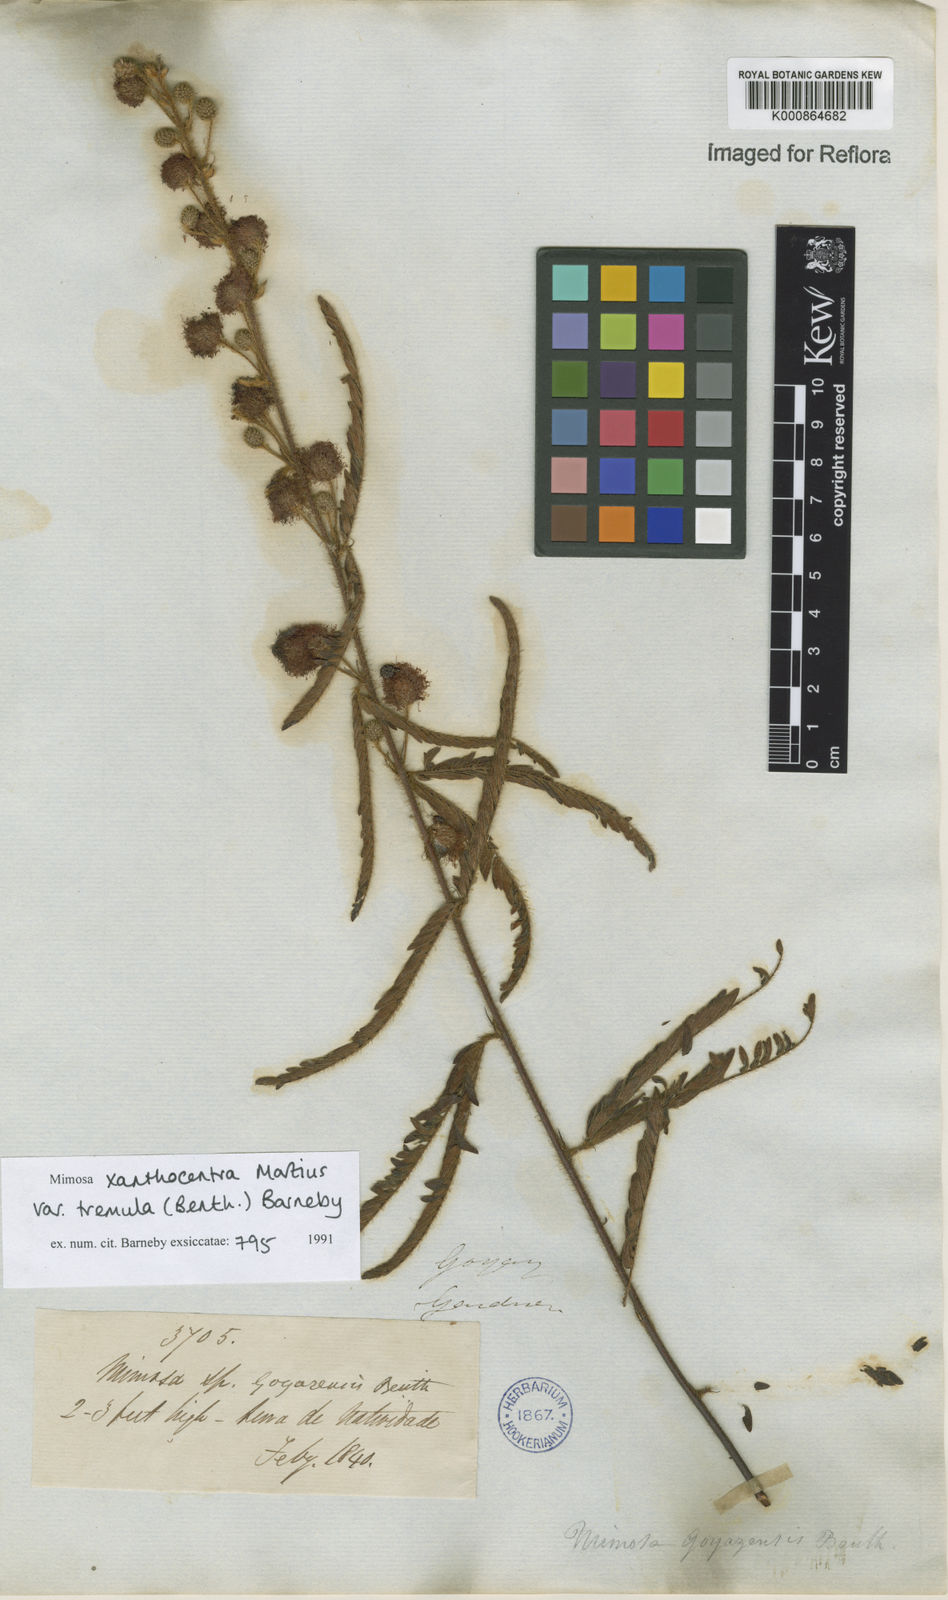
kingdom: Plantae
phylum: Tracheophyta
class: Magnoliopsida
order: Fabales
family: Fabaceae
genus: Mimosa
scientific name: Mimosa xanthocentra
